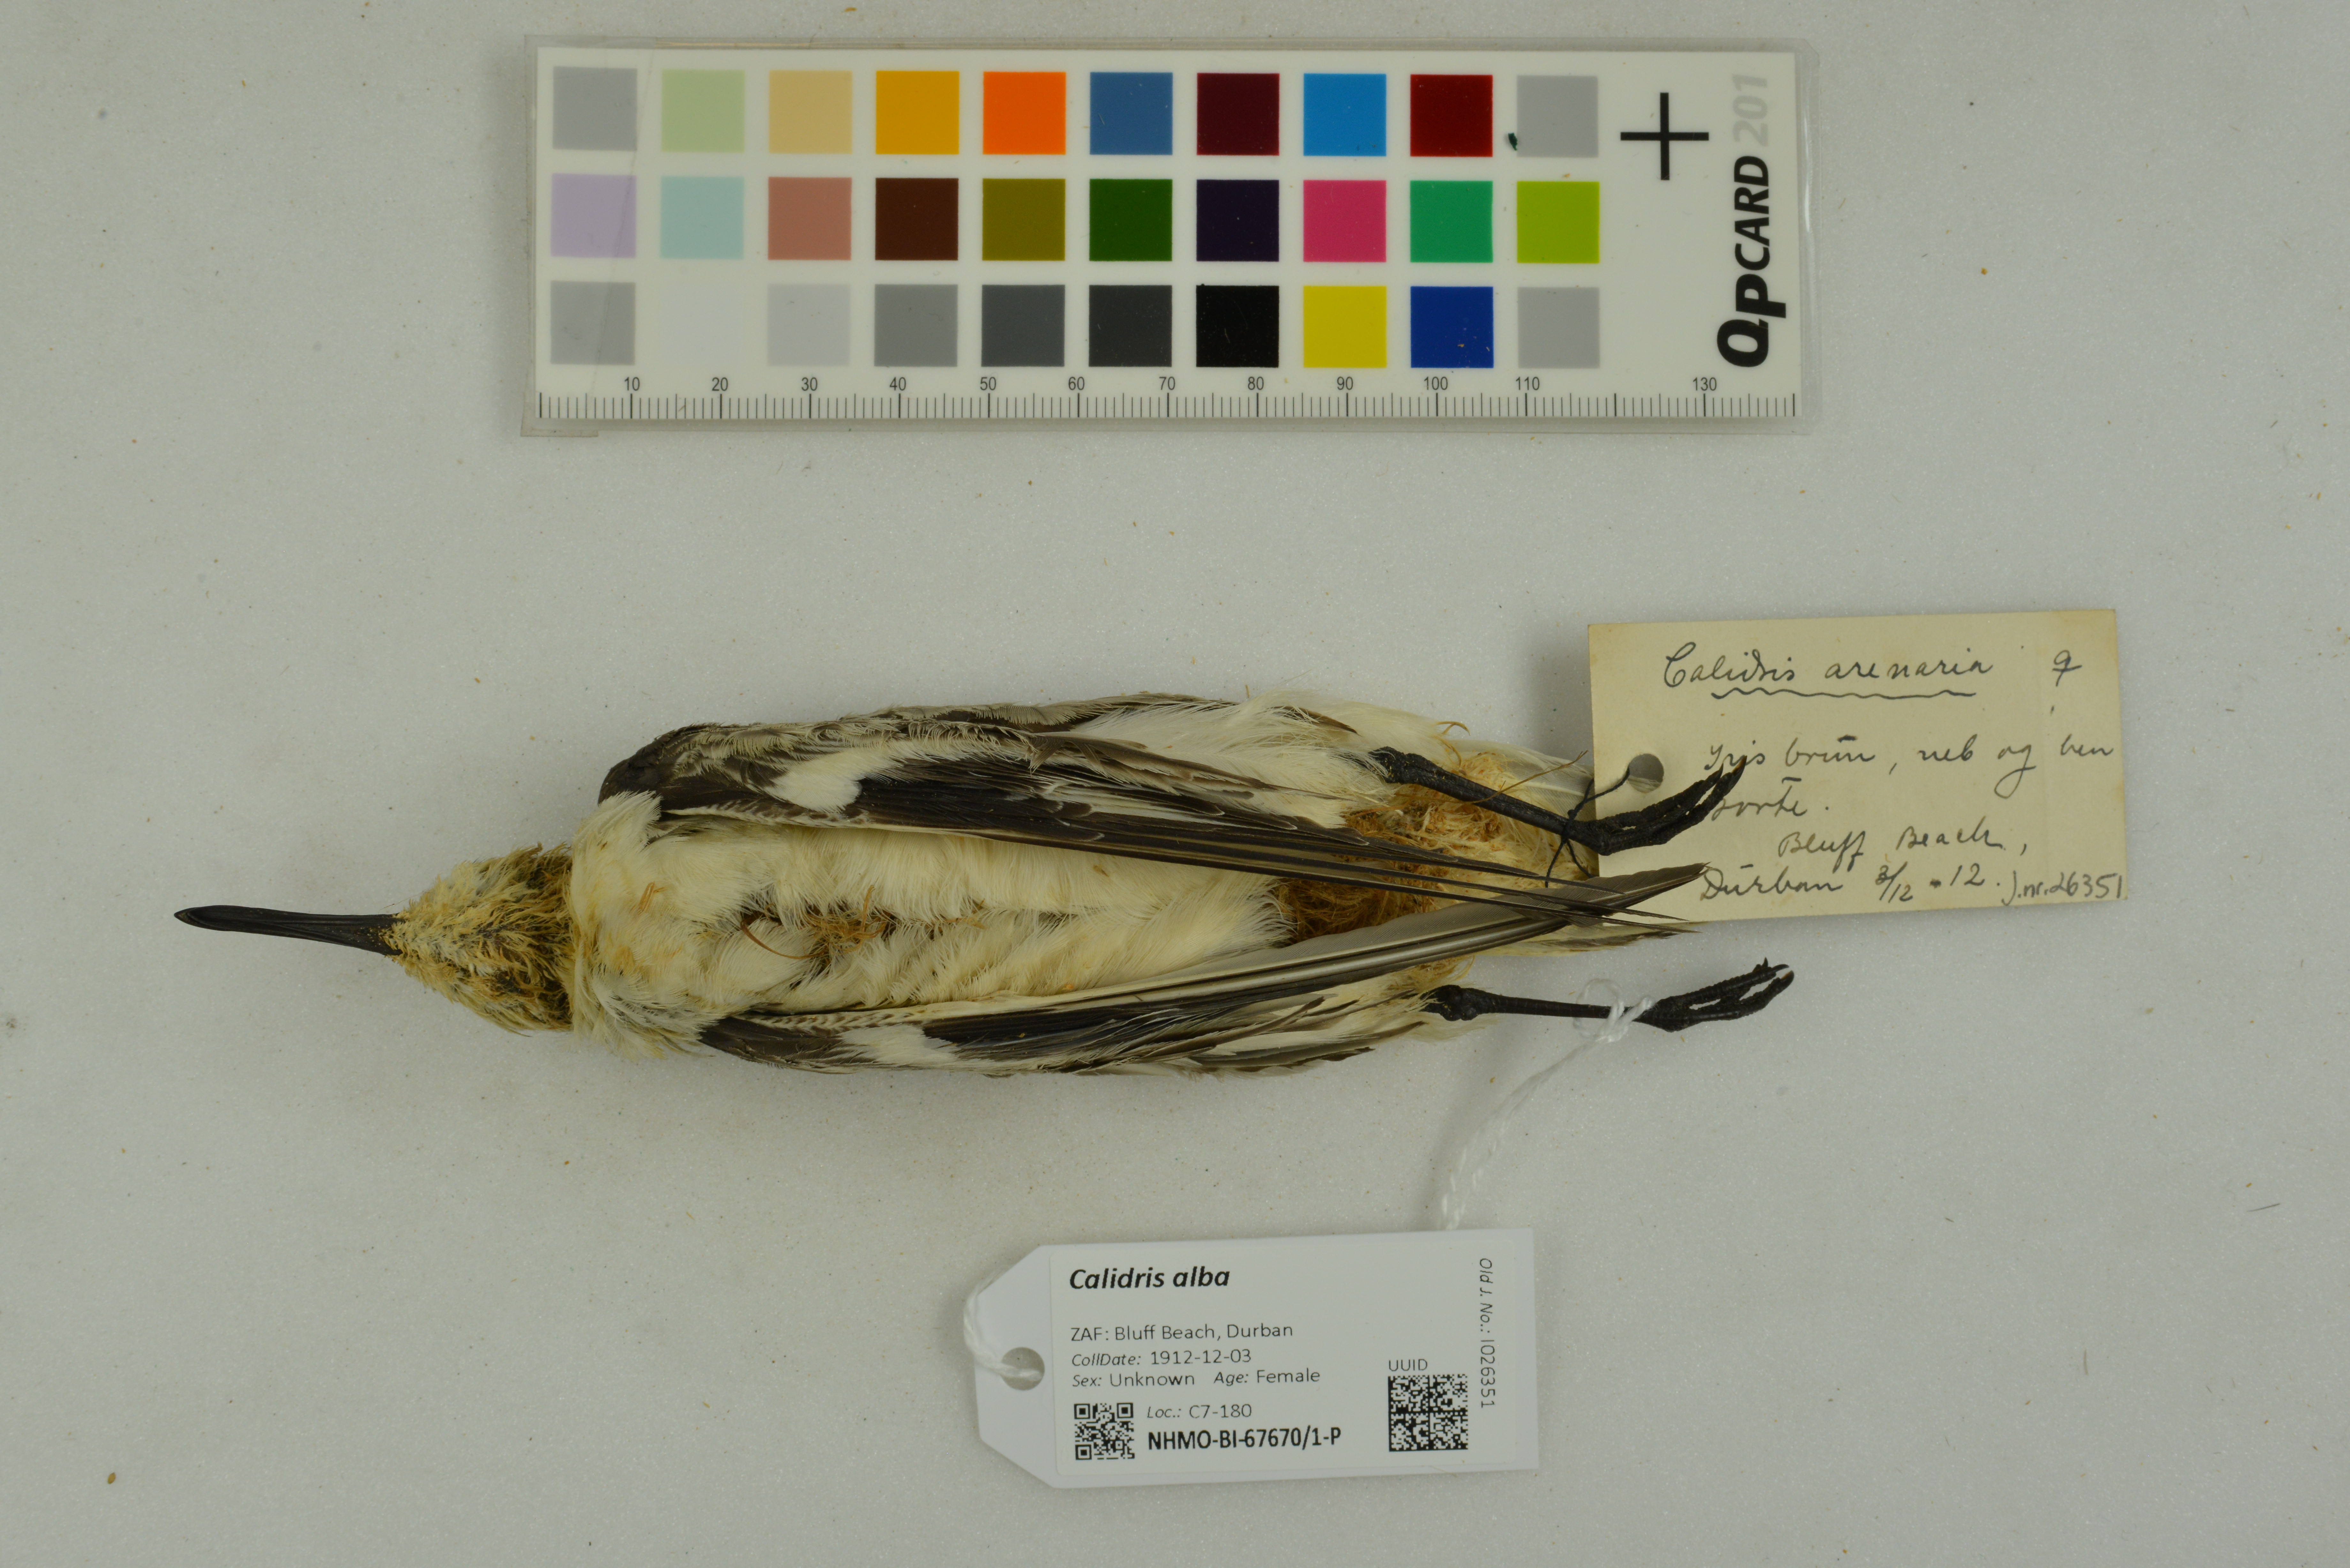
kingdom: Animalia
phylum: Chordata
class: Aves
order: Charadriiformes
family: Scolopacidae
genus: Calidris
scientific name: Calidris alba
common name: Sanderling
